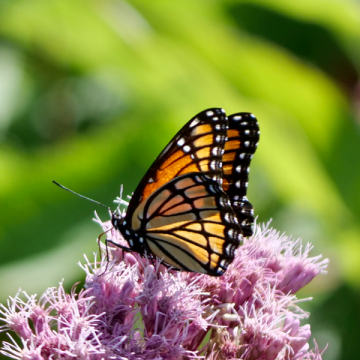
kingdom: Animalia
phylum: Arthropoda
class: Insecta
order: Lepidoptera
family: Nymphalidae
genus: Limenitis
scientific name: Limenitis archippus
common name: Viceroy
